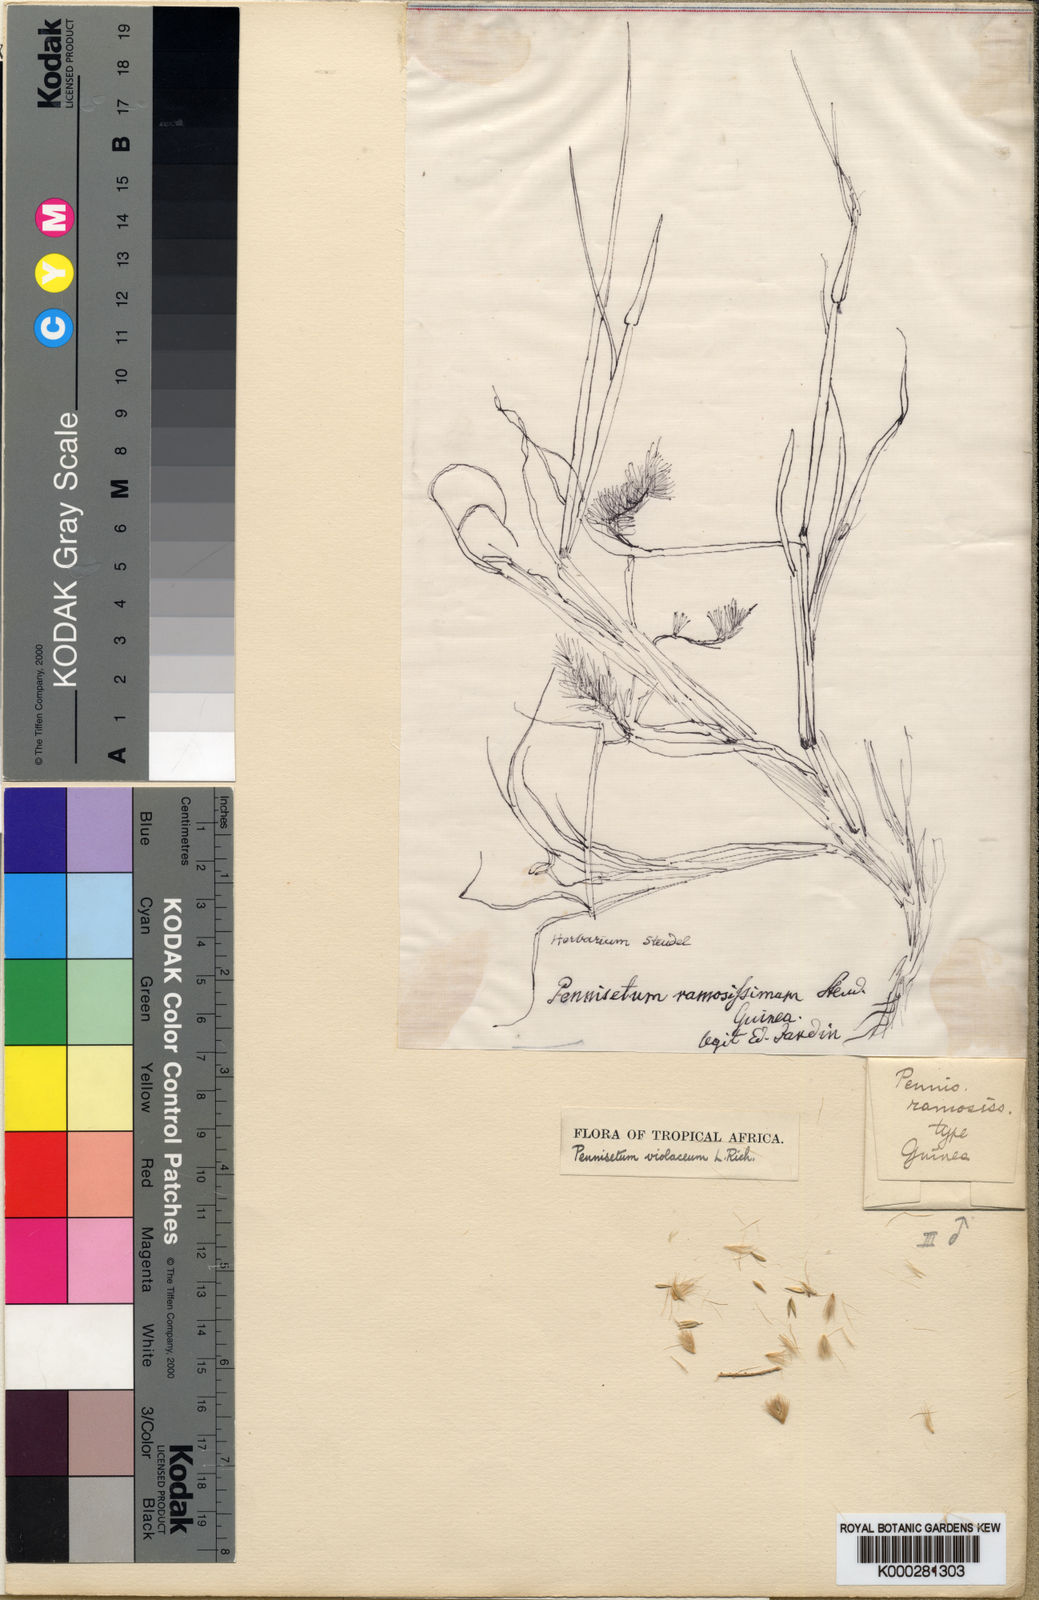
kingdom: Plantae
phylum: Tracheophyta
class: Liliopsida
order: Poales
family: Poaceae
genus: Cenchrus
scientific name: Cenchrus violaceus
